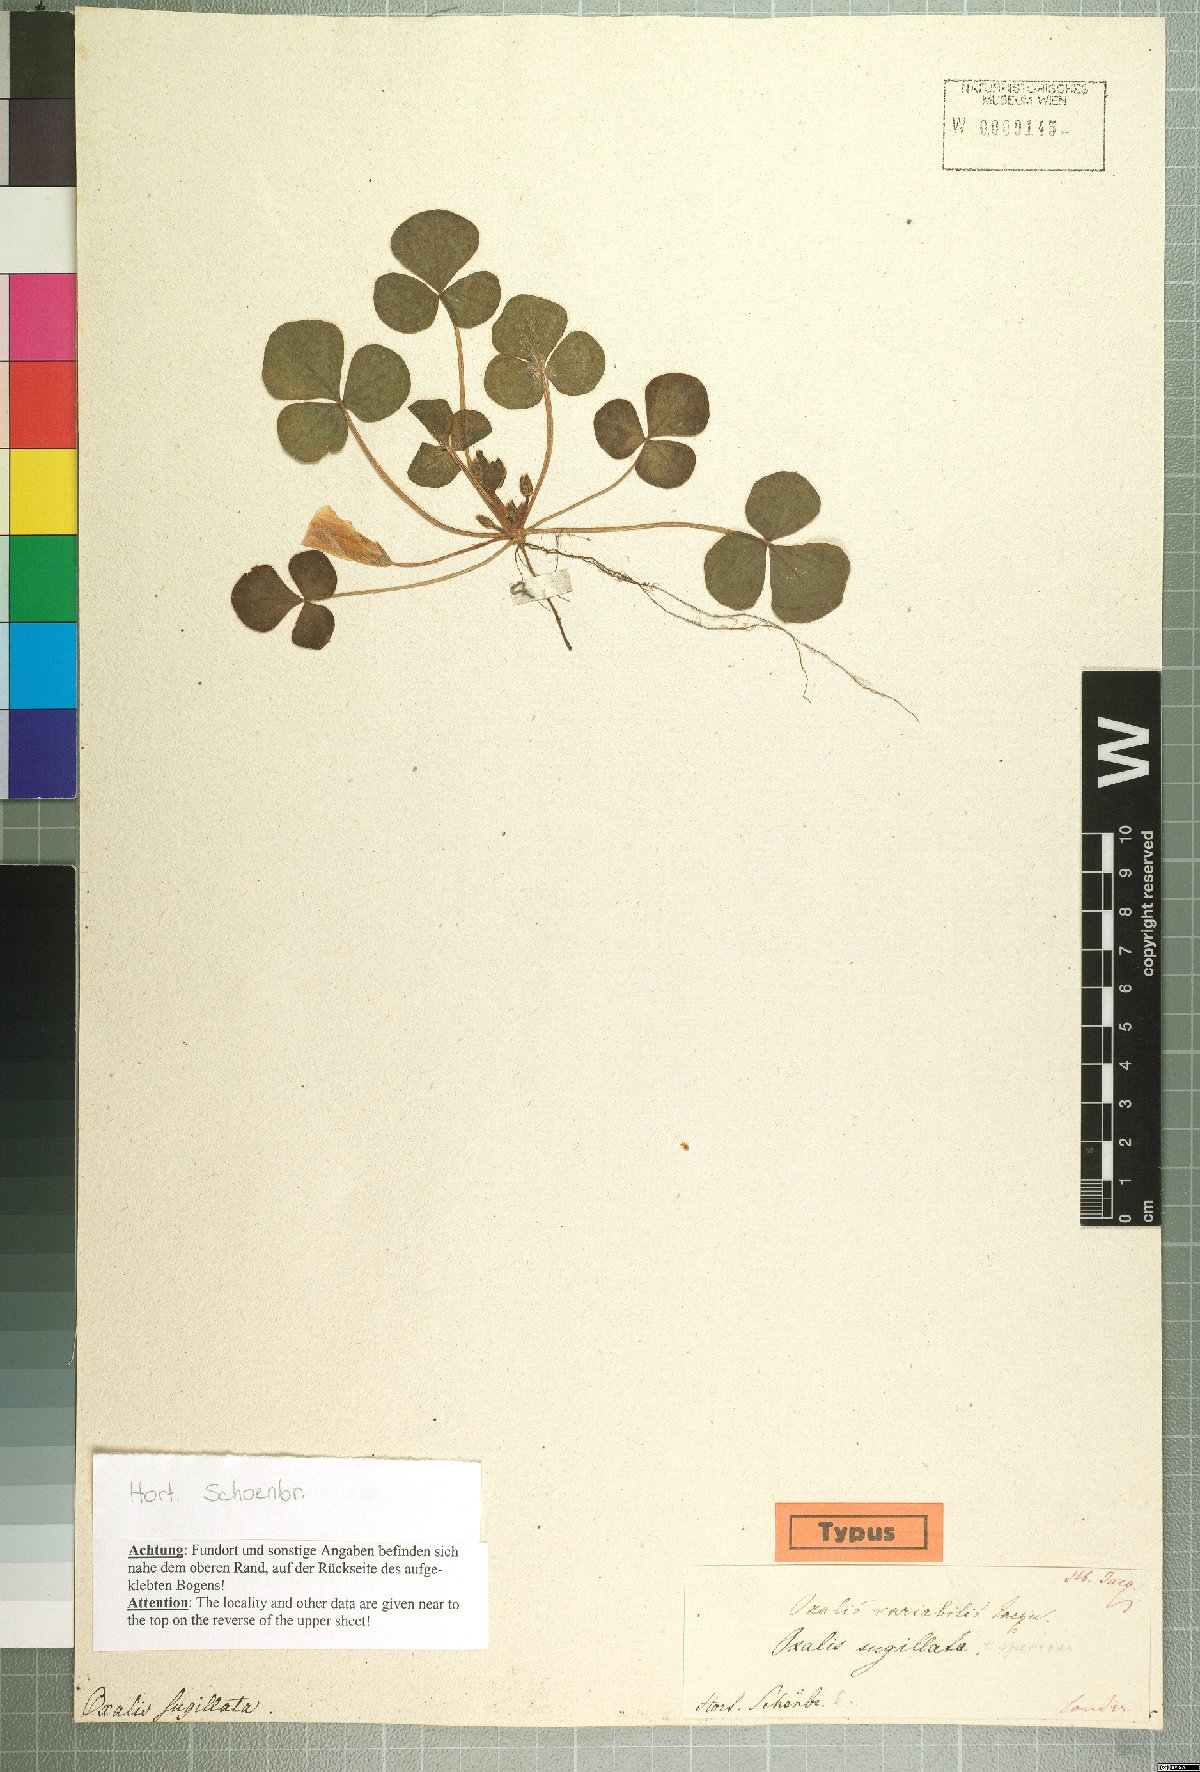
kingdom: Plantae
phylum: Tracheophyta
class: Magnoliopsida
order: Oxalidales
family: Oxalidaceae
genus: Oxalis
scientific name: Oxalis purpurea
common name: Purple woodsorrel
